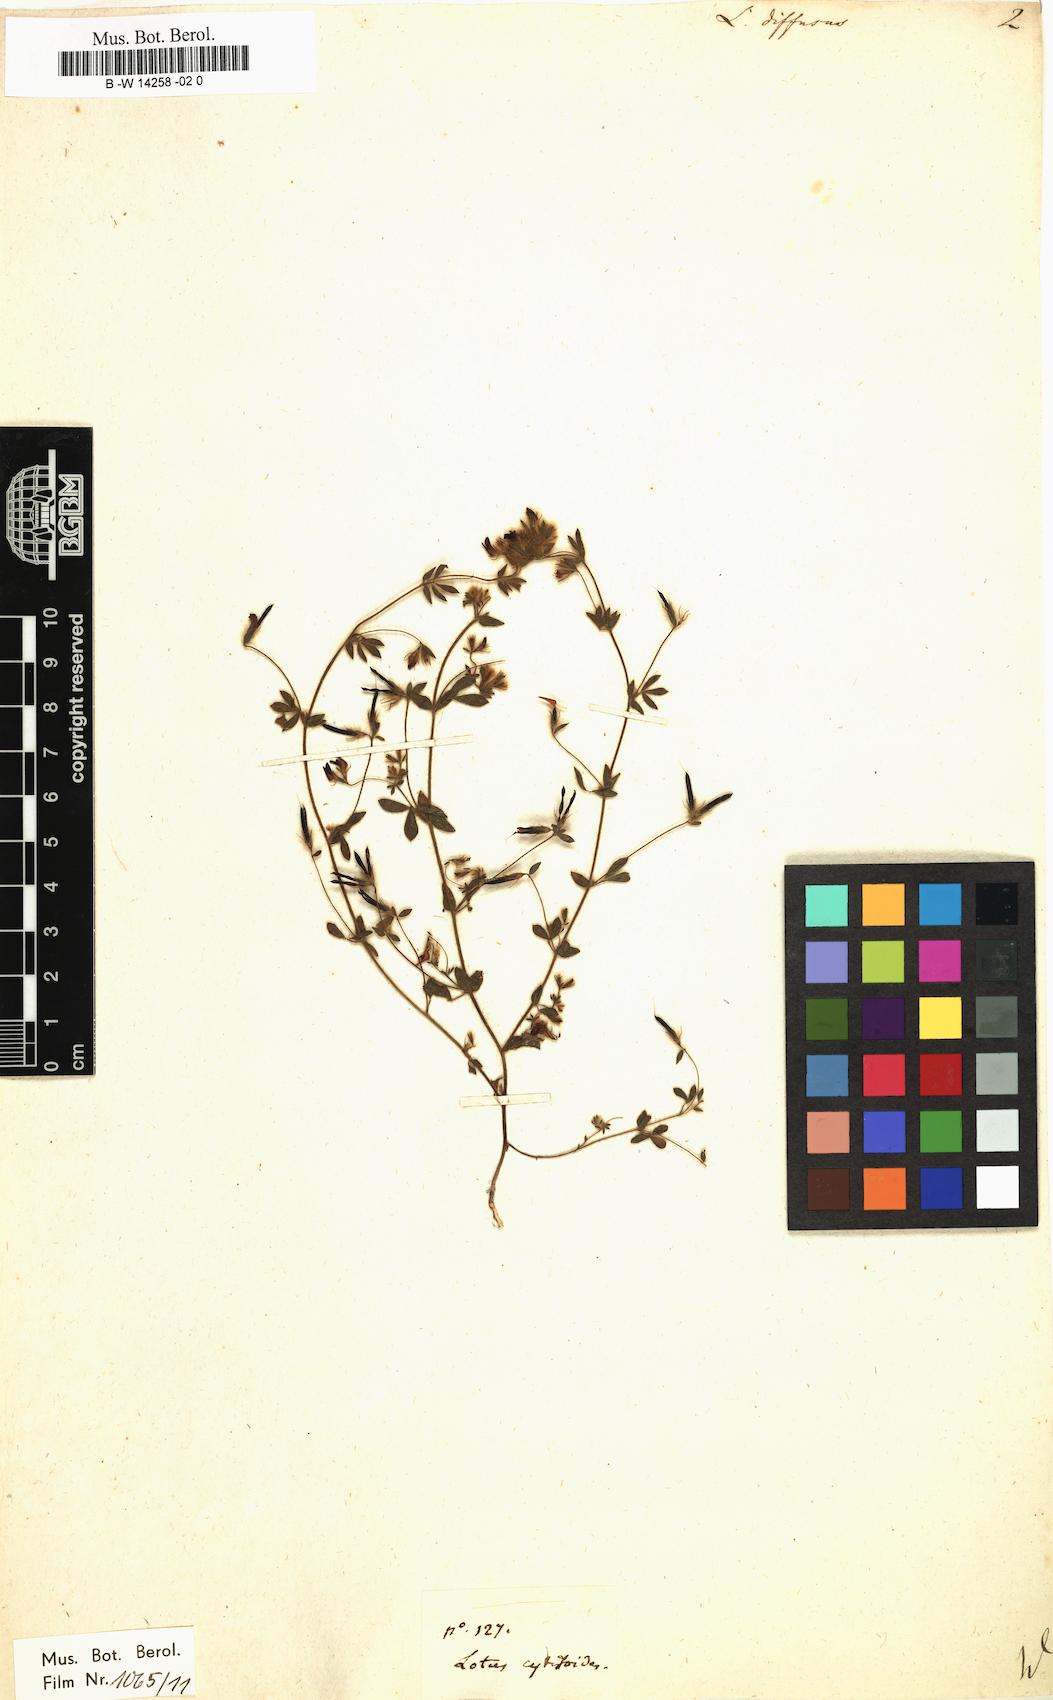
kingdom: Plantae
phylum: Tracheophyta
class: Magnoliopsida
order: Fabales
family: Fabaceae
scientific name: Fabaceae
